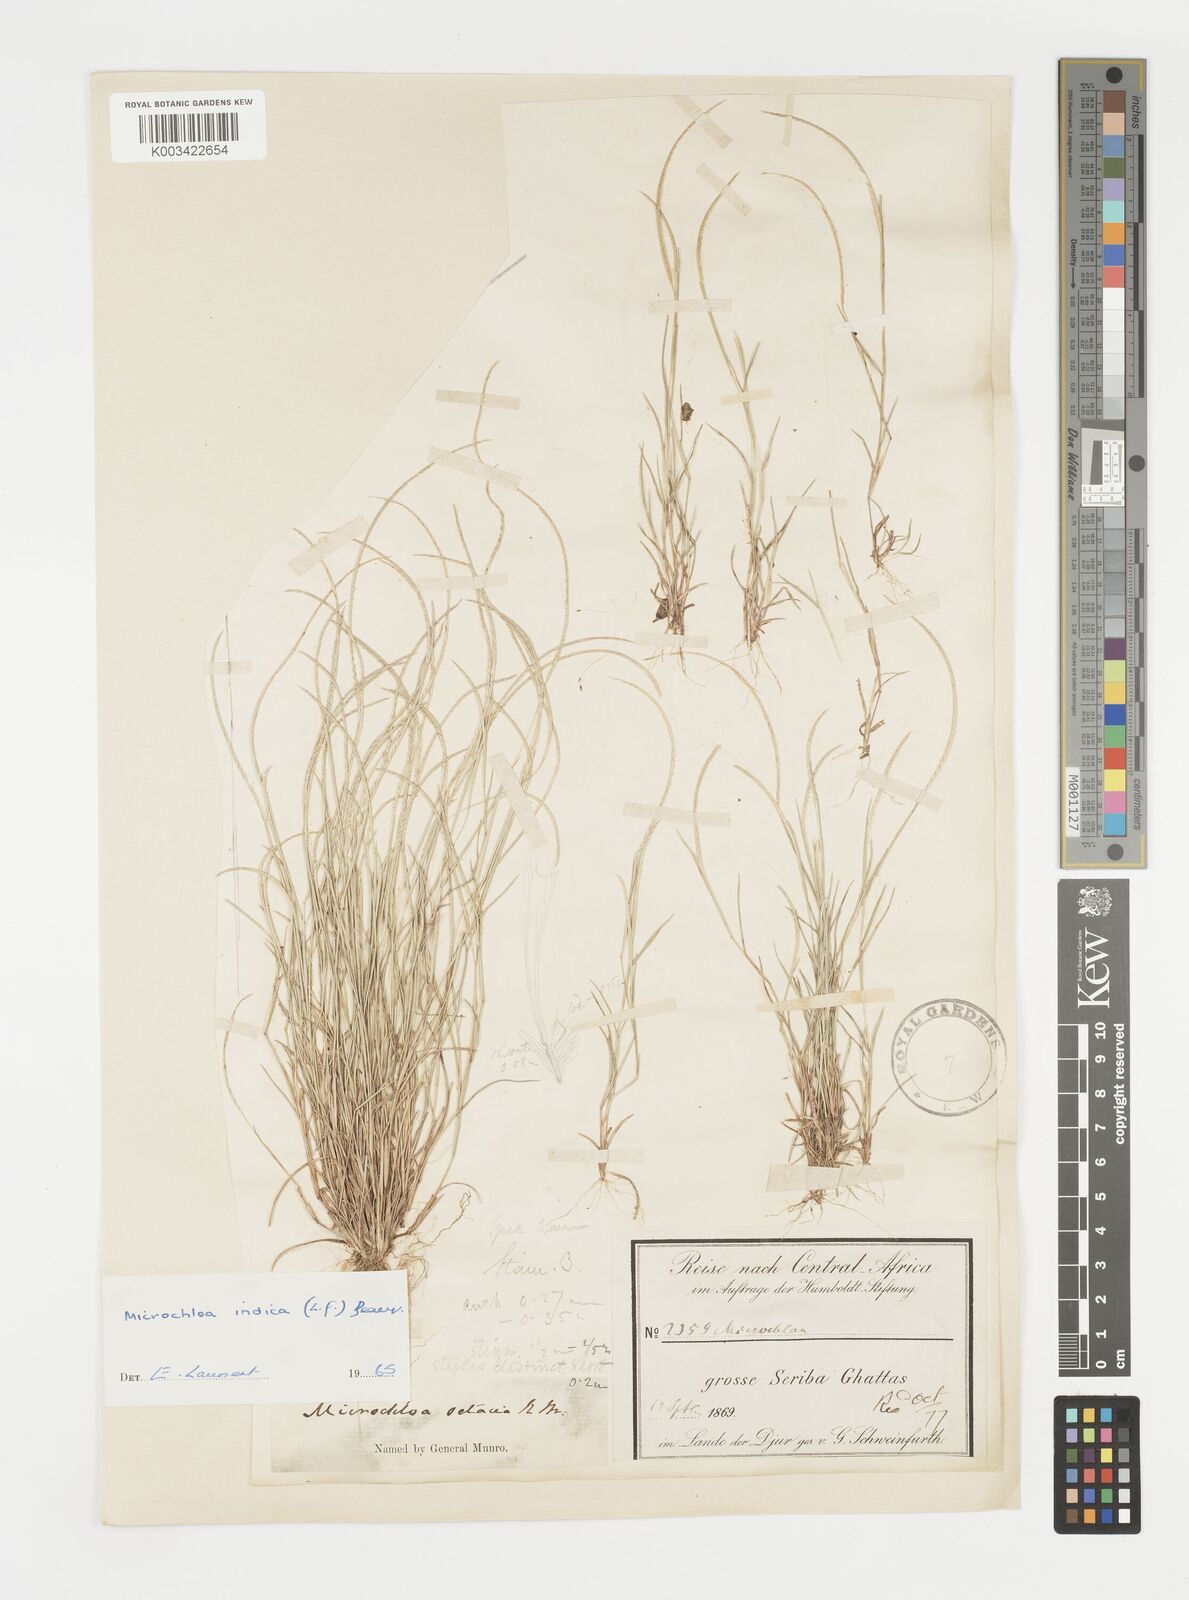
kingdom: Plantae
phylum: Tracheophyta
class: Liliopsida
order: Poales
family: Poaceae
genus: Microchloa
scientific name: Microchloa indica
